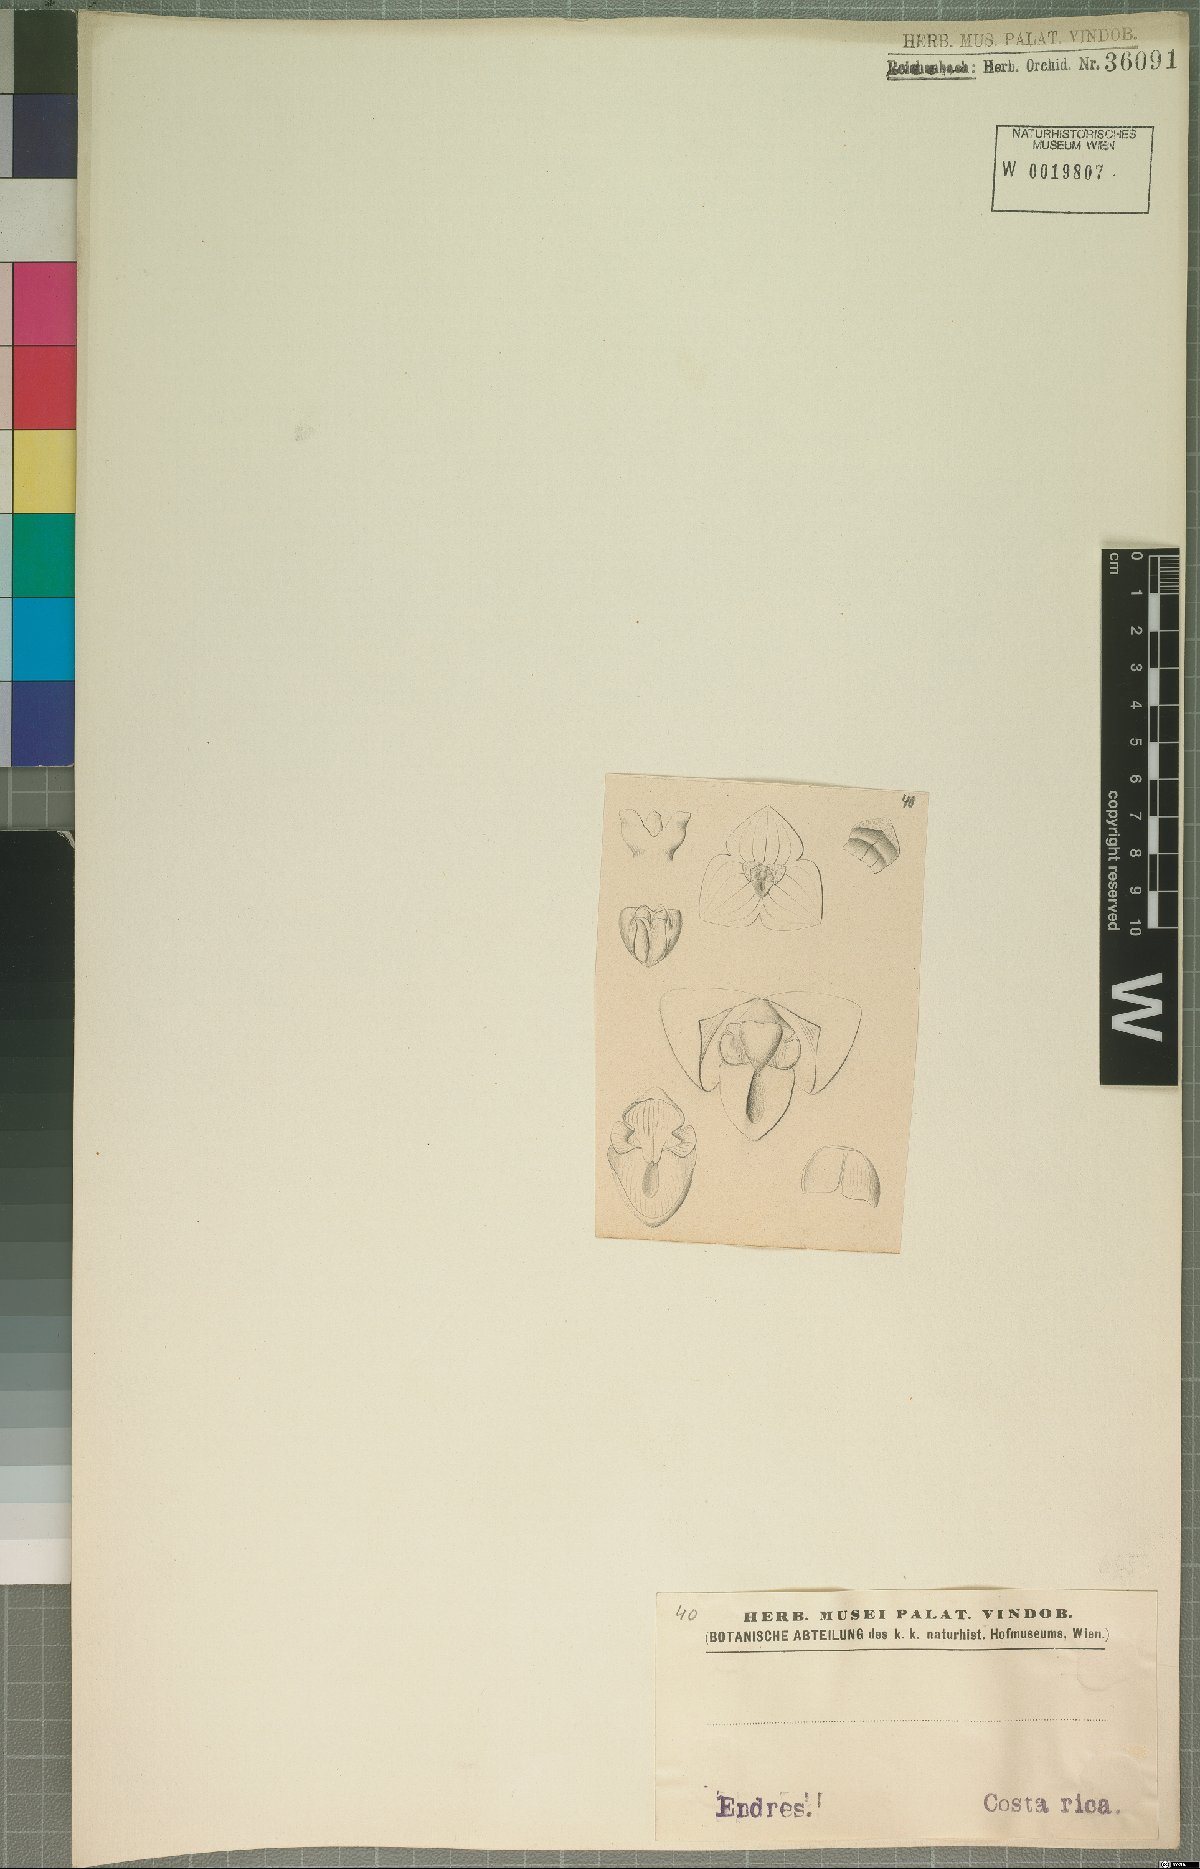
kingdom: Plantae
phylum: Tracheophyta
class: Liliopsida
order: Asparagales
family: Orchidaceae
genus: Stelis
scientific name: Stelis
